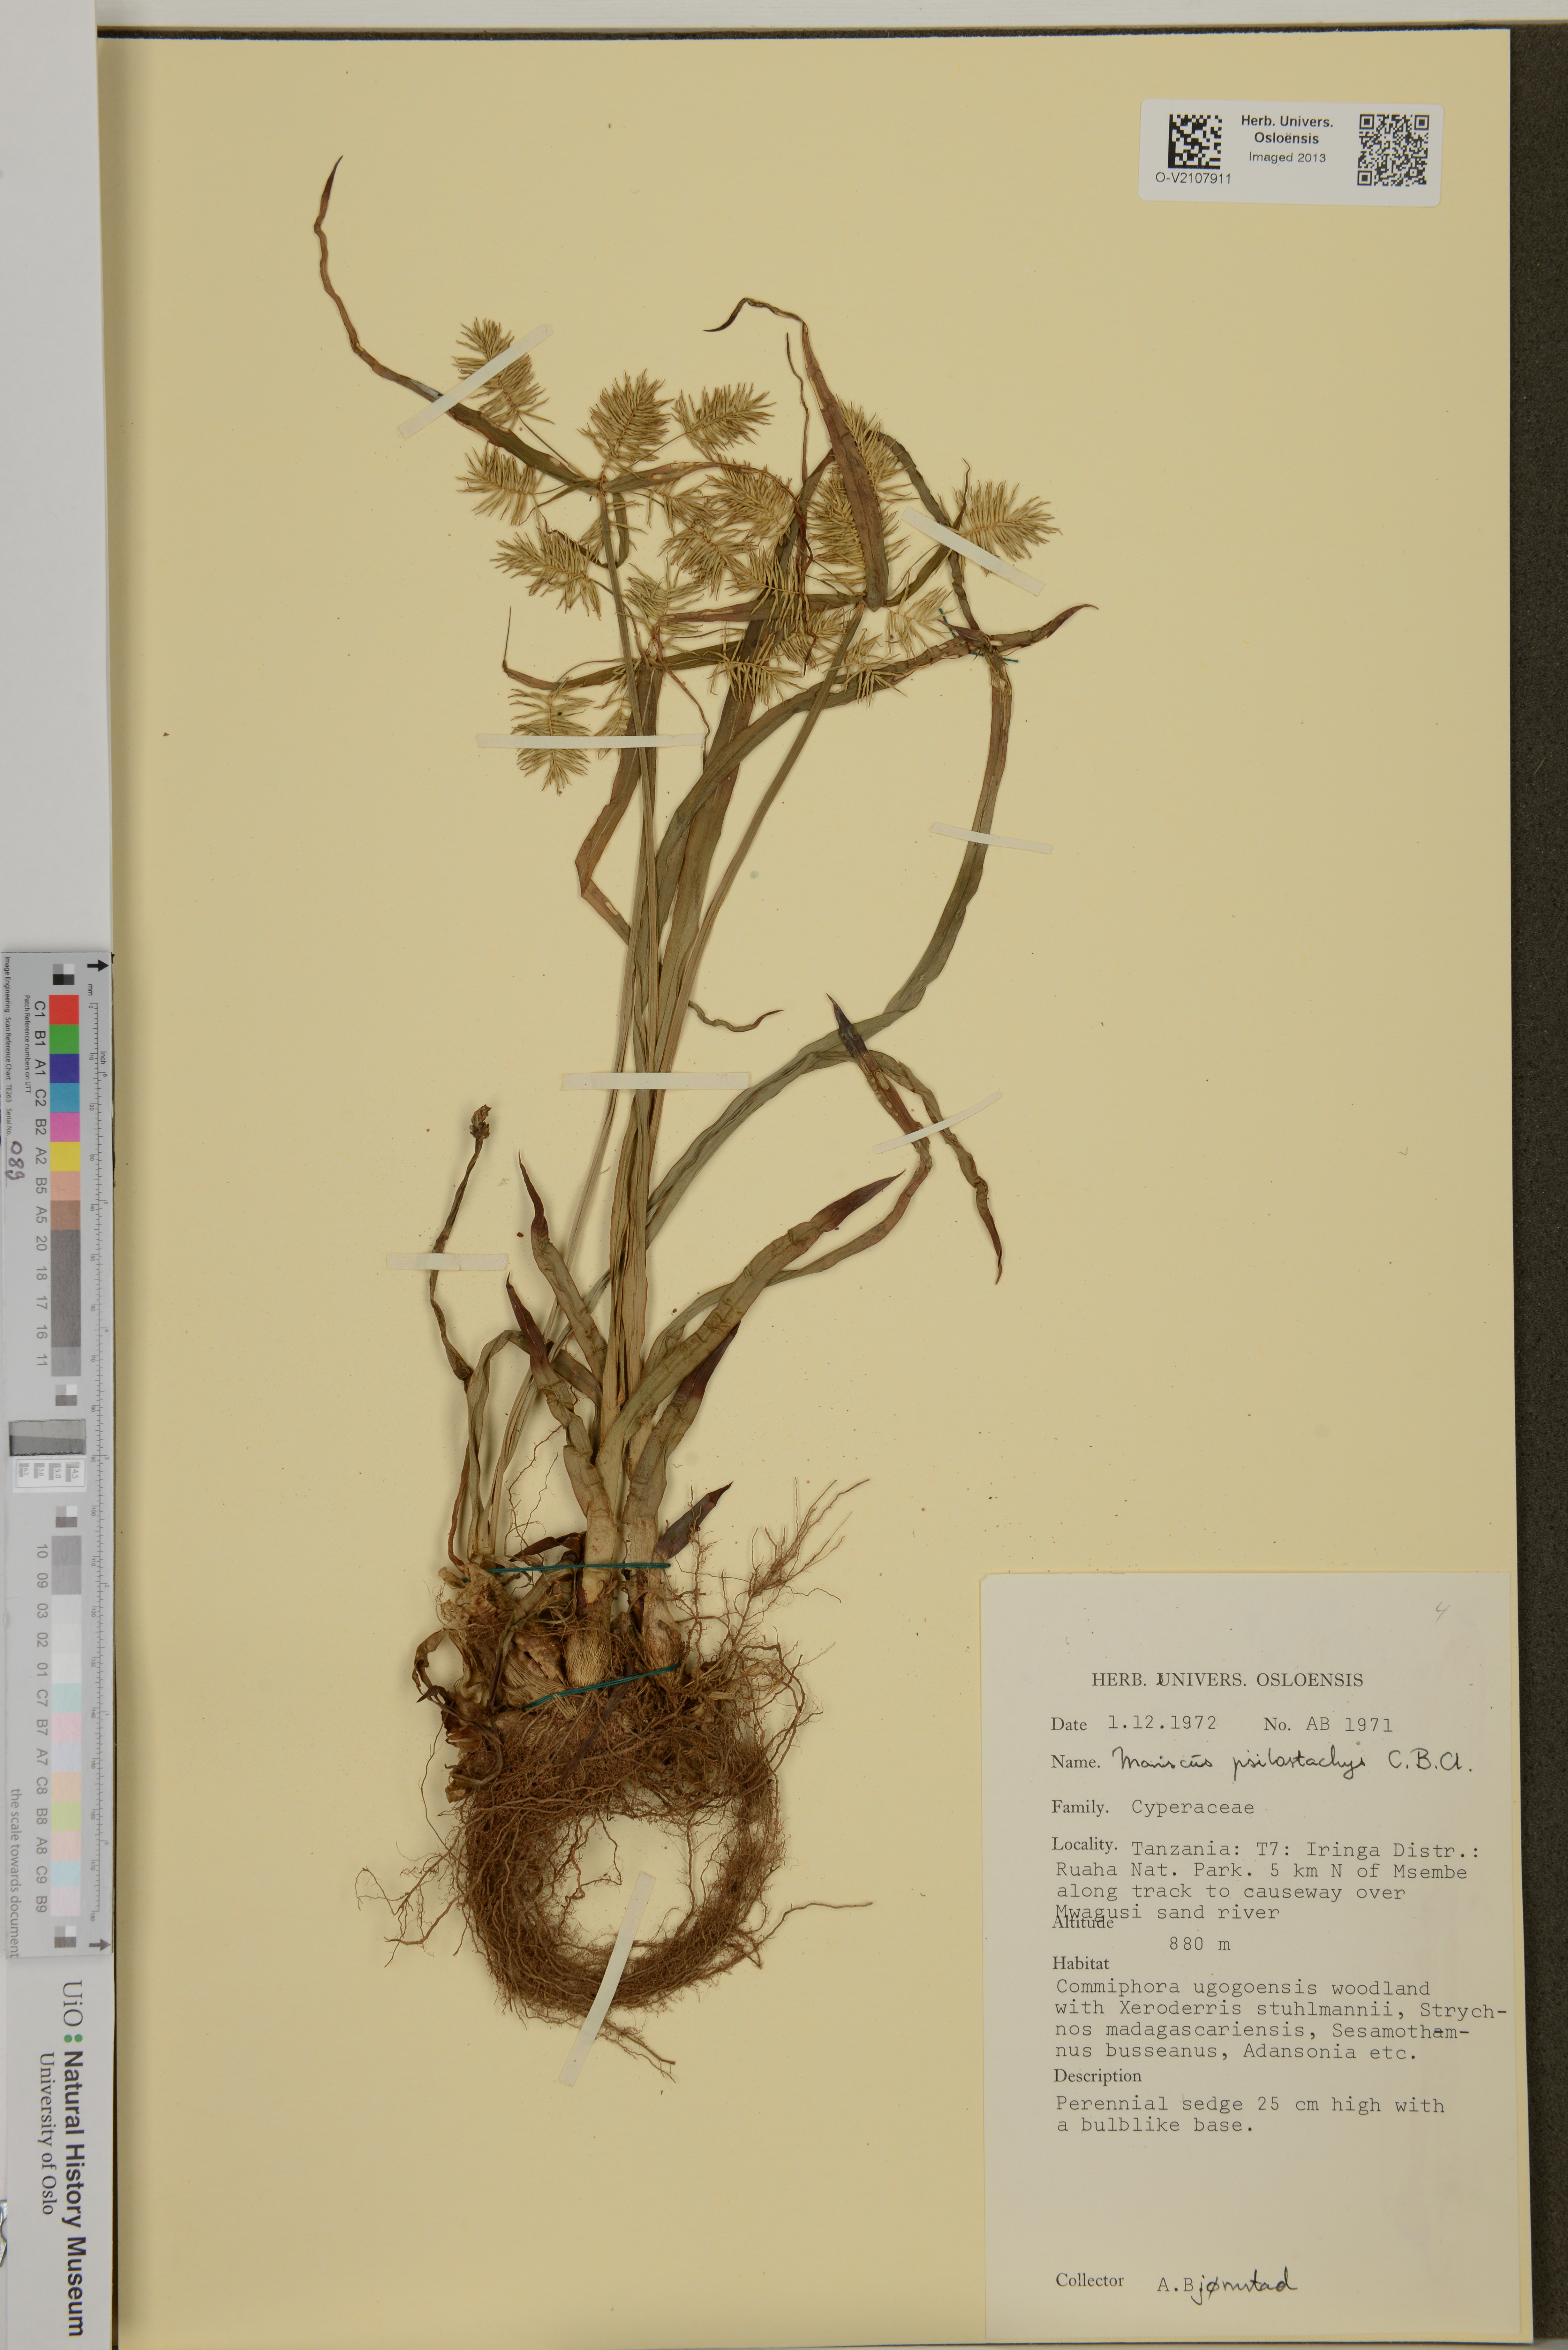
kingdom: Plantae
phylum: Tracheophyta
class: Liliopsida
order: Poales
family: Cyperaceae
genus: Cyperus
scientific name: Cyperus
